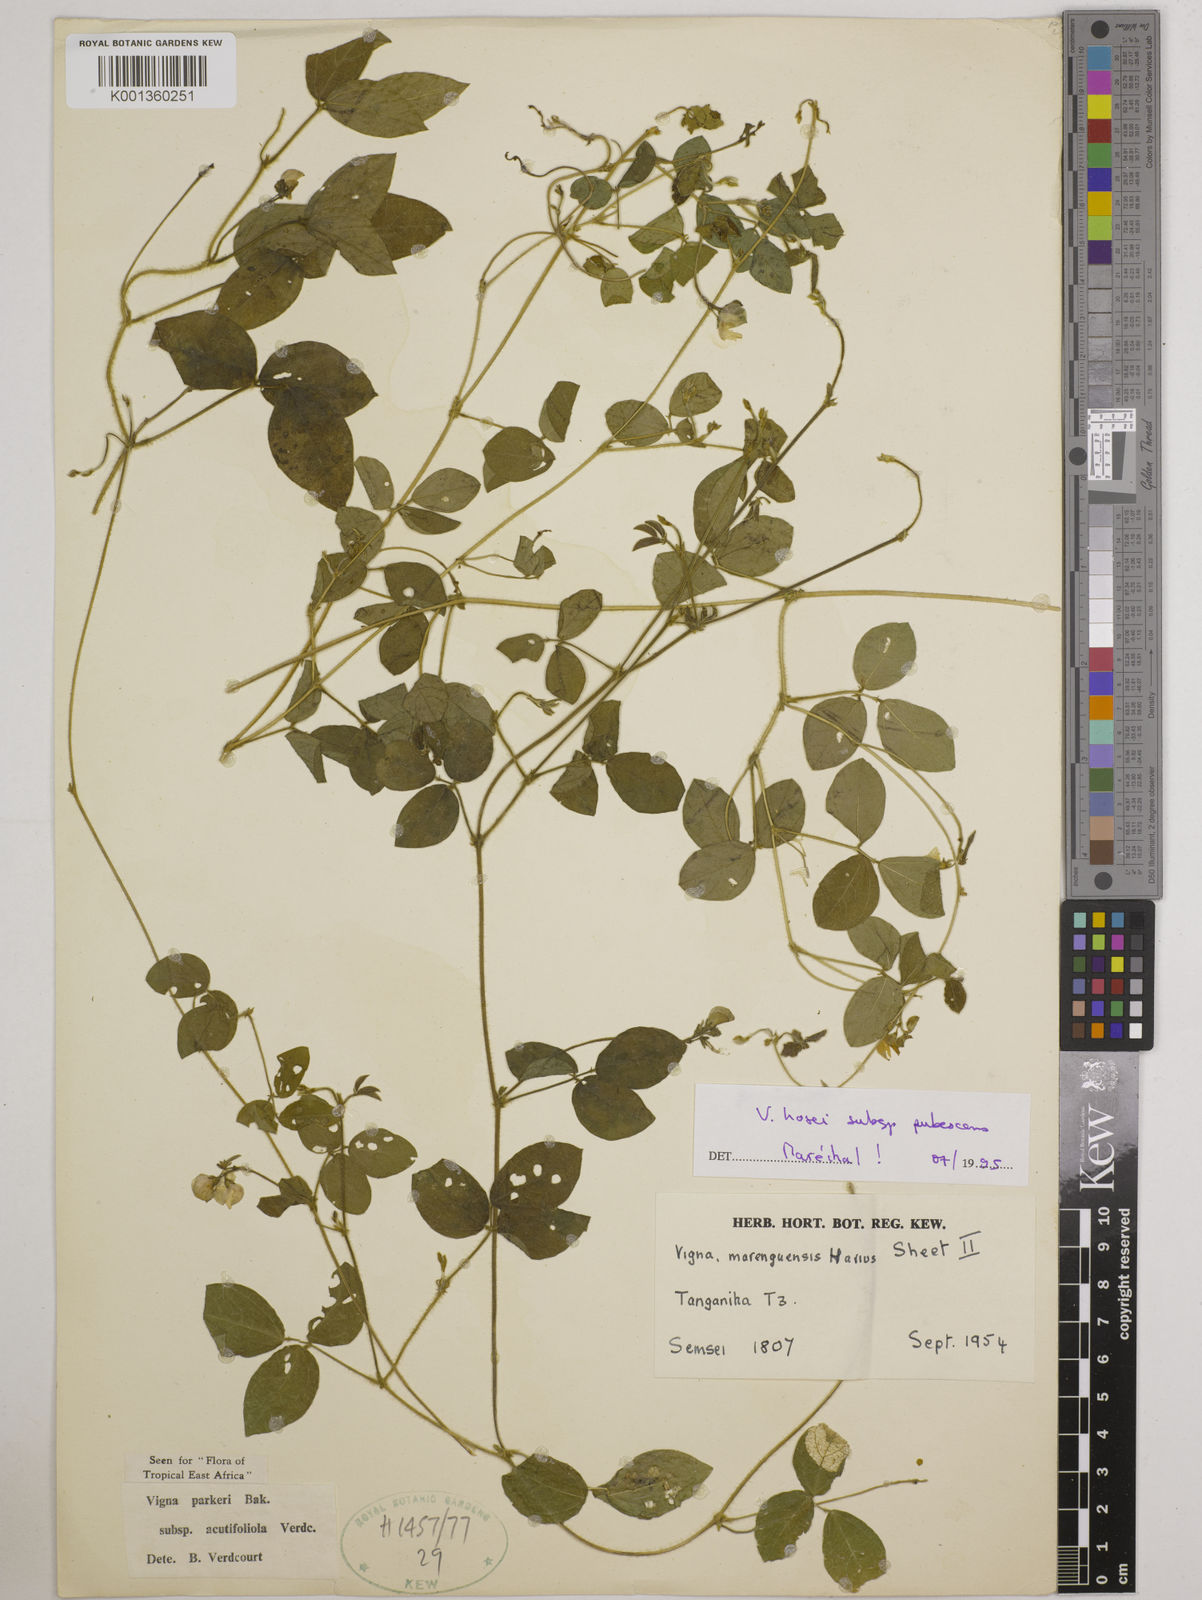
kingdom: Plantae
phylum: Tracheophyta
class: Magnoliopsida
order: Fabales
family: Fabaceae
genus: Vigna
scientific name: Vigna
